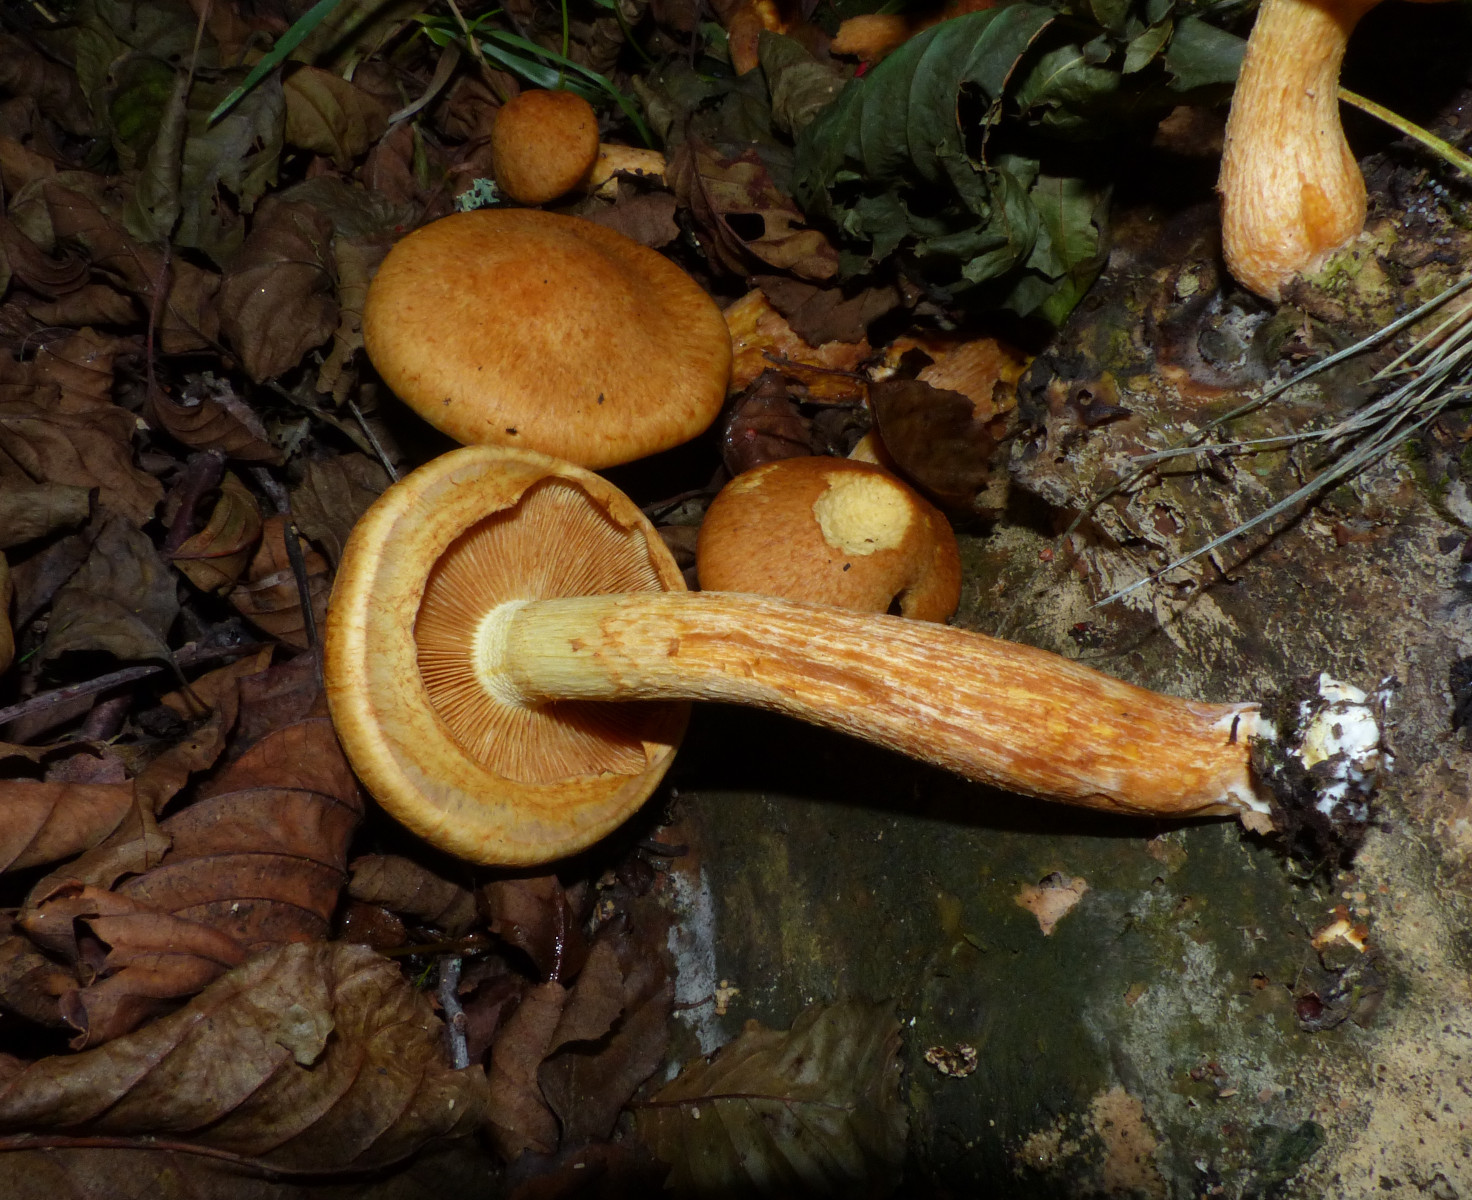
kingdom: Fungi
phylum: Basidiomycota
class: Agaricomycetes
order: Agaricales
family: Hymenogastraceae
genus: Gymnopilus
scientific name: Gymnopilus spectabilis
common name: fibret flammehat
